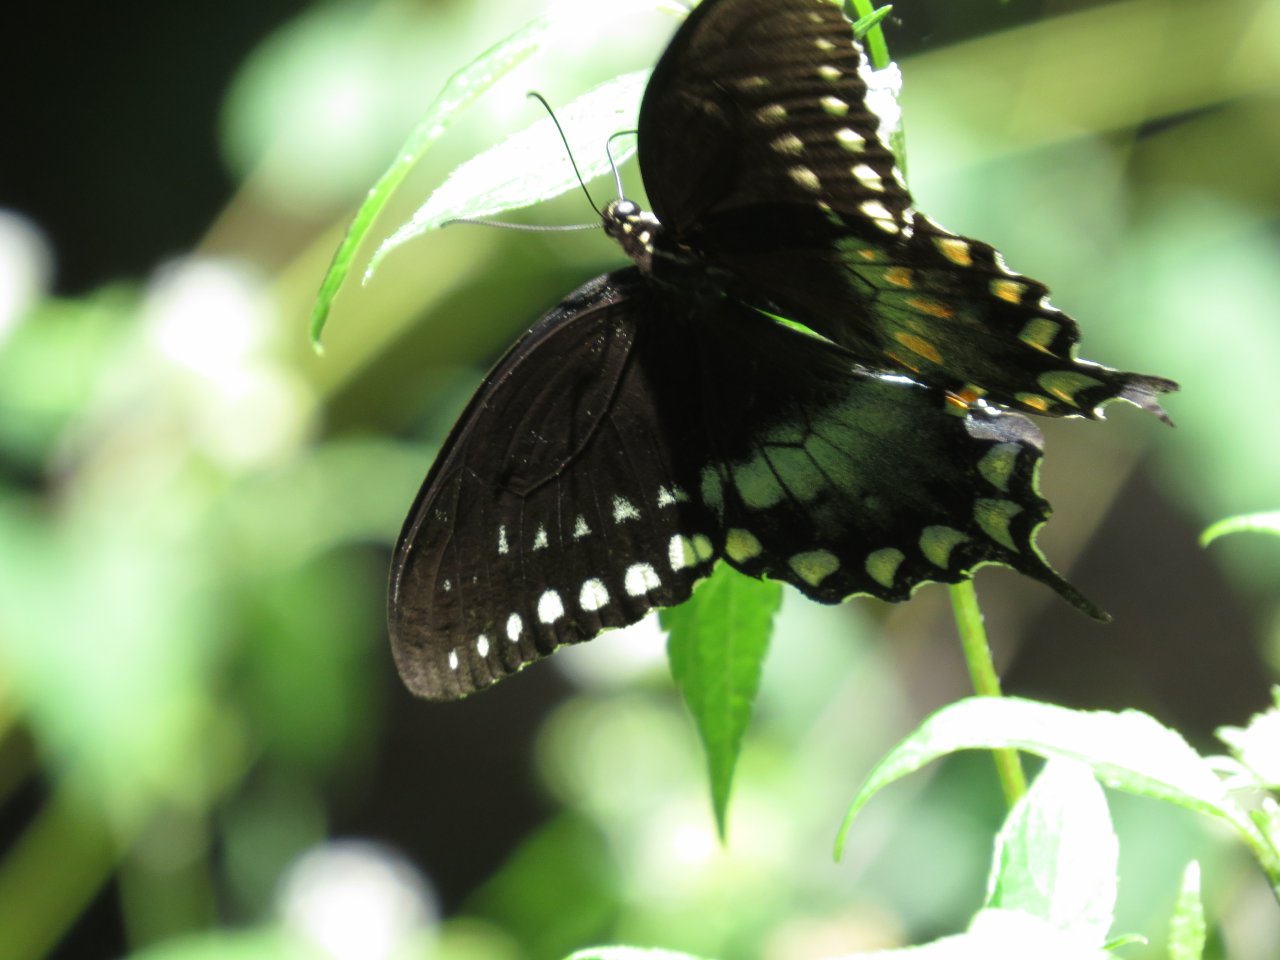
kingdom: Animalia
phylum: Arthropoda
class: Insecta
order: Lepidoptera
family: Papilionidae
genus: Pterourus
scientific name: Pterourus troilus
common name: Spicebush Swallowtail
